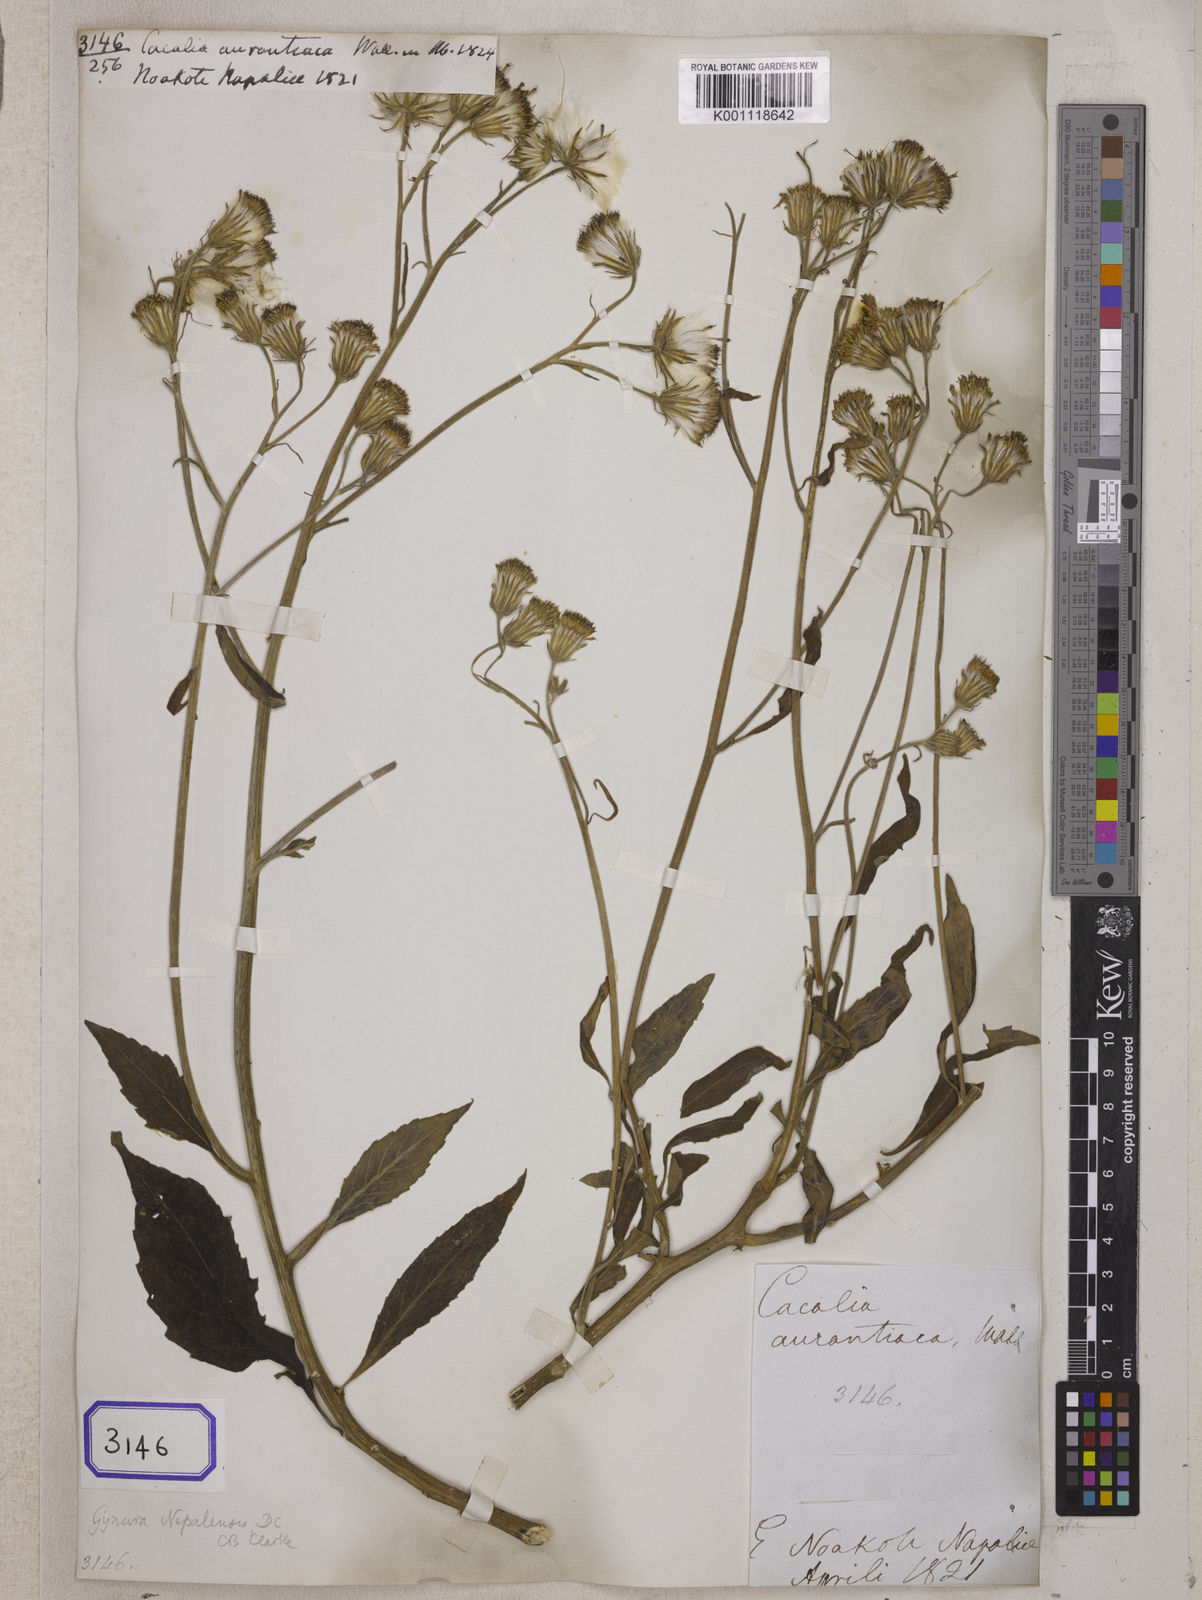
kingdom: Plantae
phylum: Tracheophyta
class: Magnoliopsida
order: Asterales
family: Asteraceae
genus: Gynura
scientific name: Gynura nepalensis
